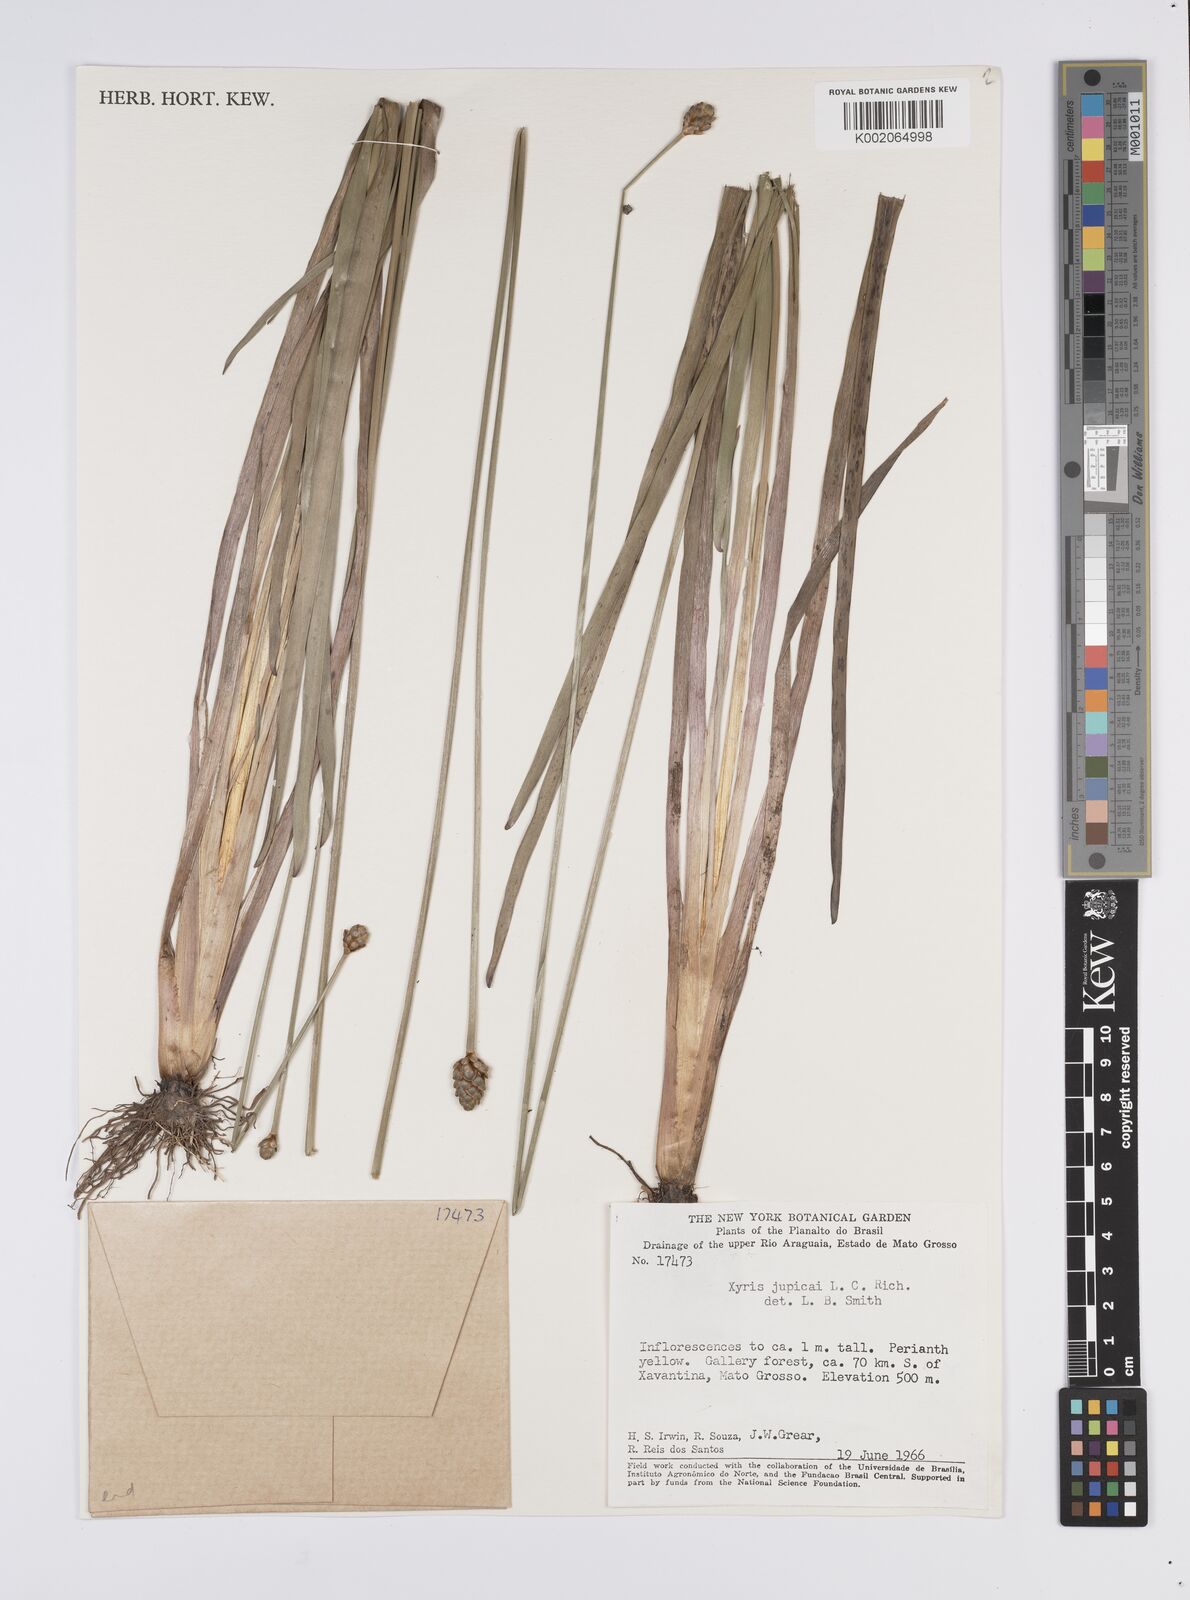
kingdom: Plantae
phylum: Tracheophyta
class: Liliopsida
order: Poales
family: Xyridaceae
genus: Xyris
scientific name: Xyris jupicai
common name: Richard's yelloweyed grass
